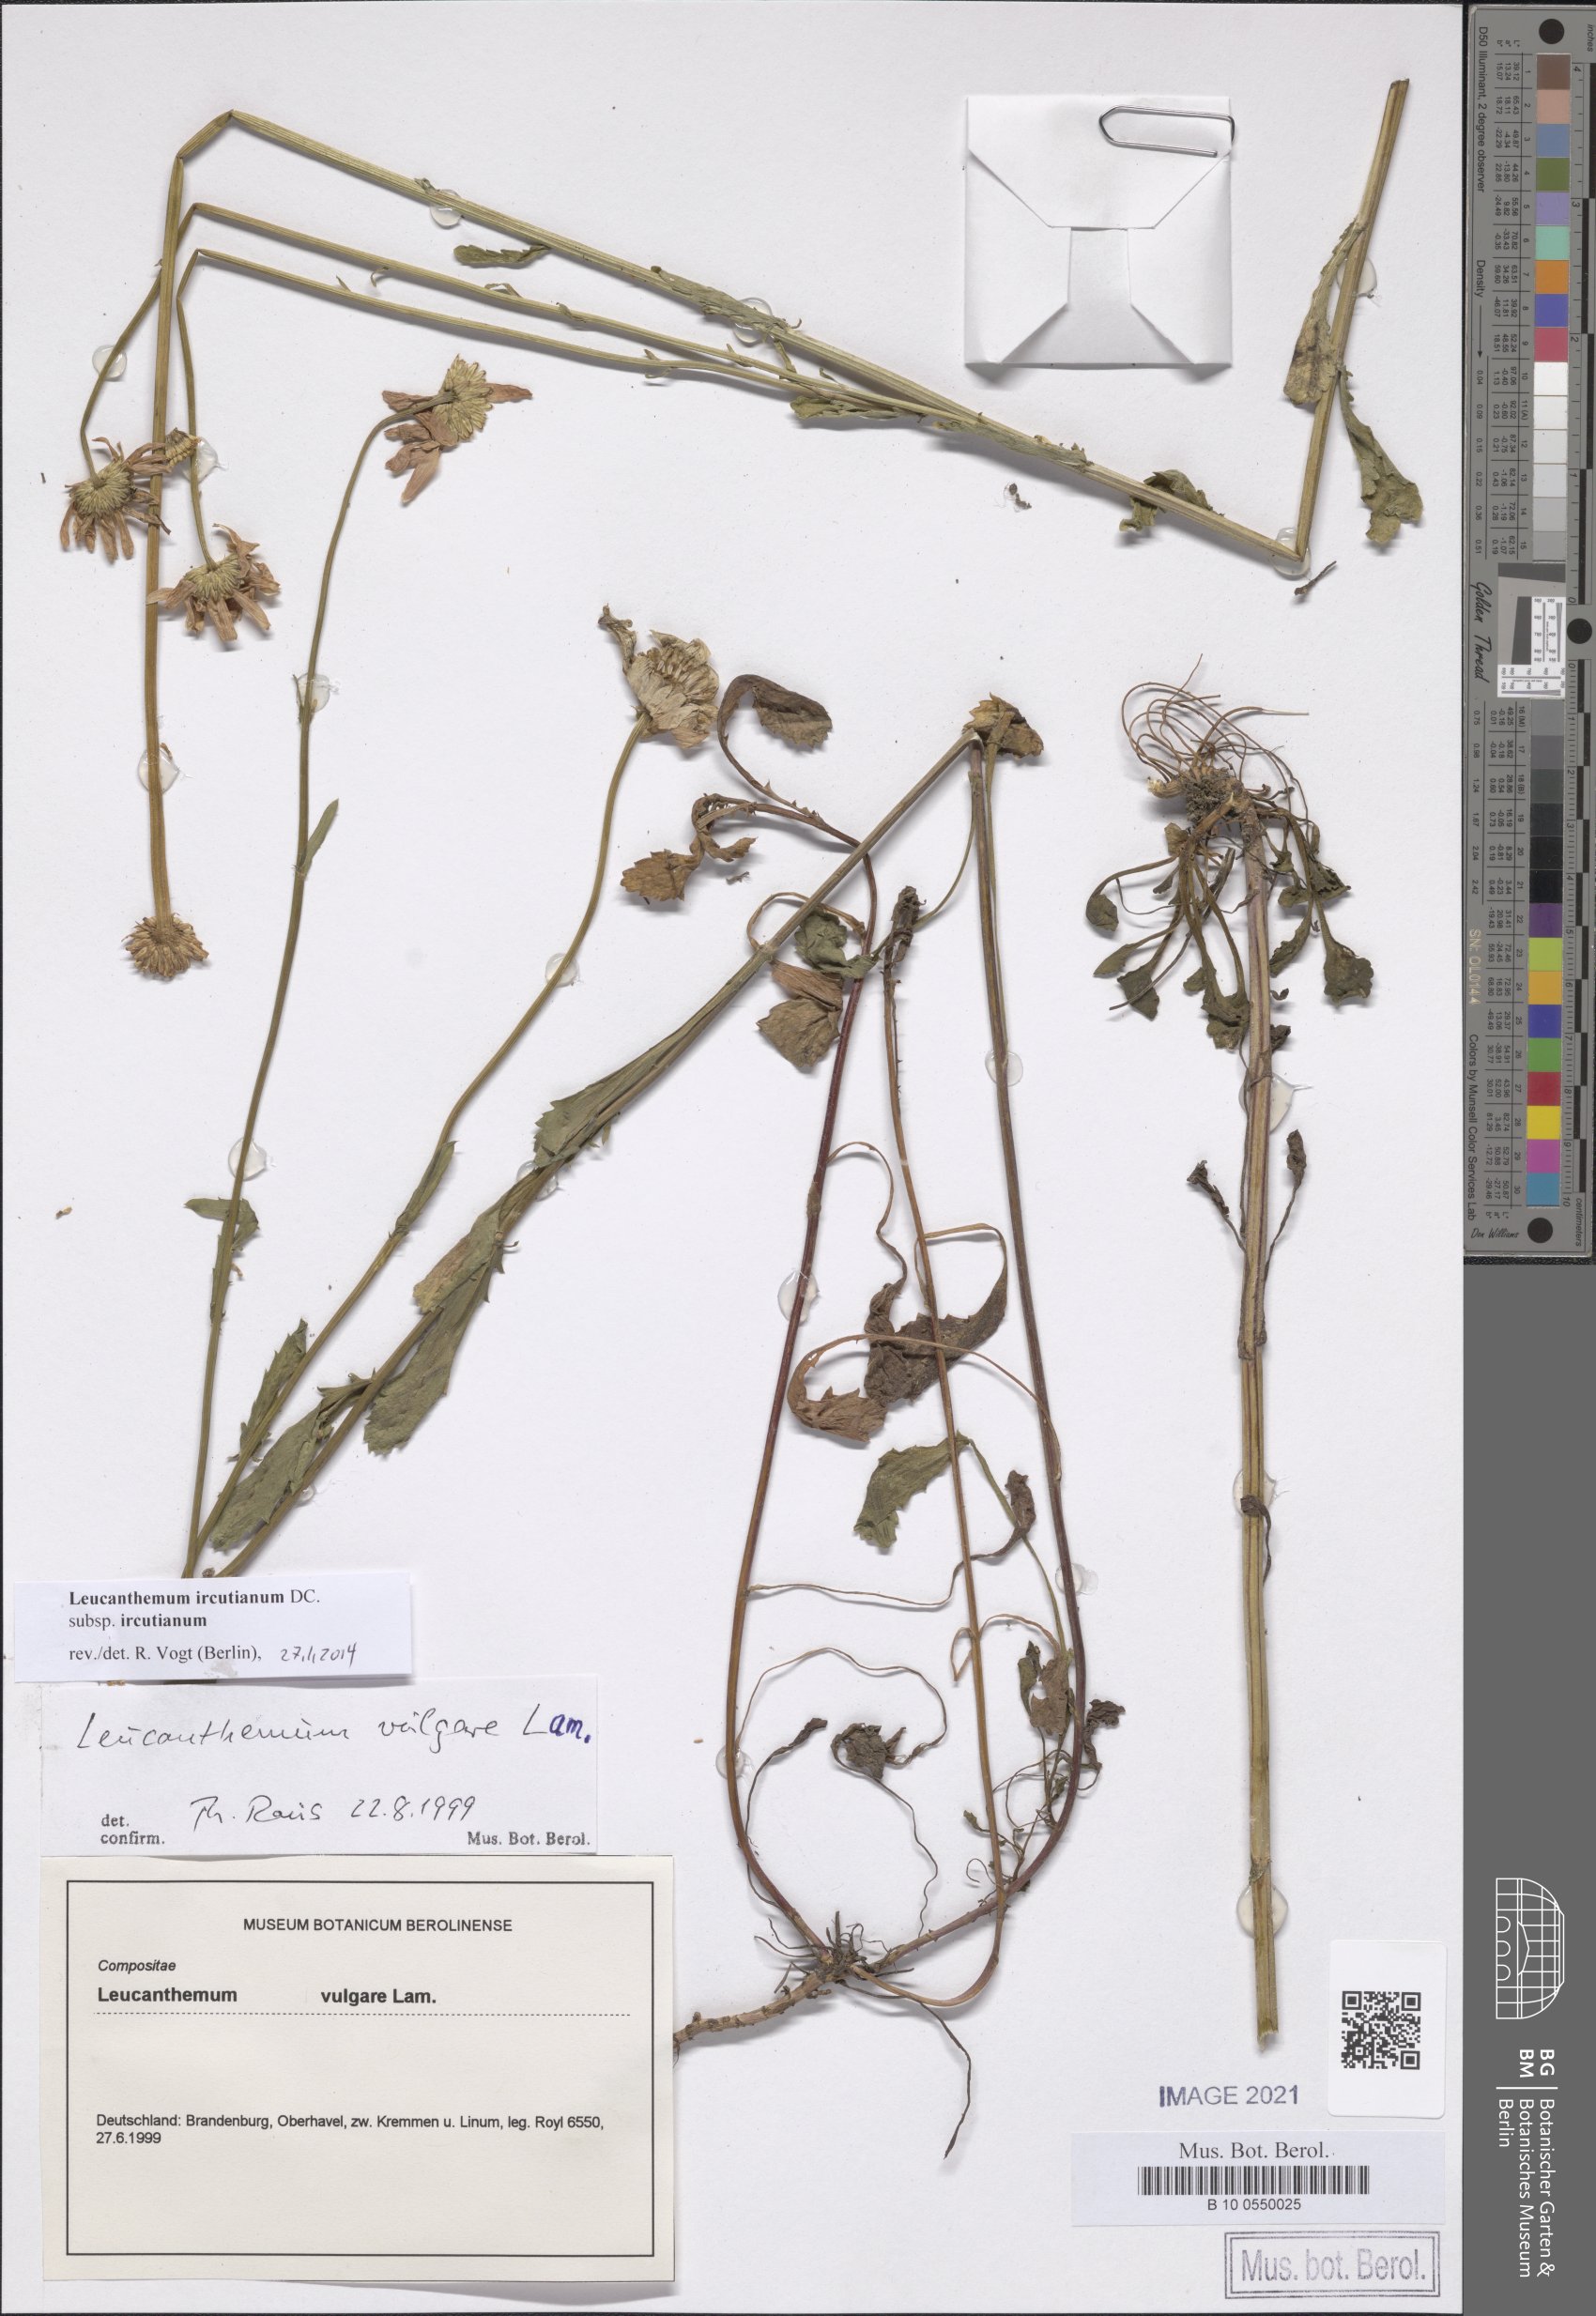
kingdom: Plantae
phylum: Tracheophyta
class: Magnoliopsida
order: Asterales
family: Asteraceae
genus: Leucanthemum
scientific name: Leucanthemum ircutianum
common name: Daisy
